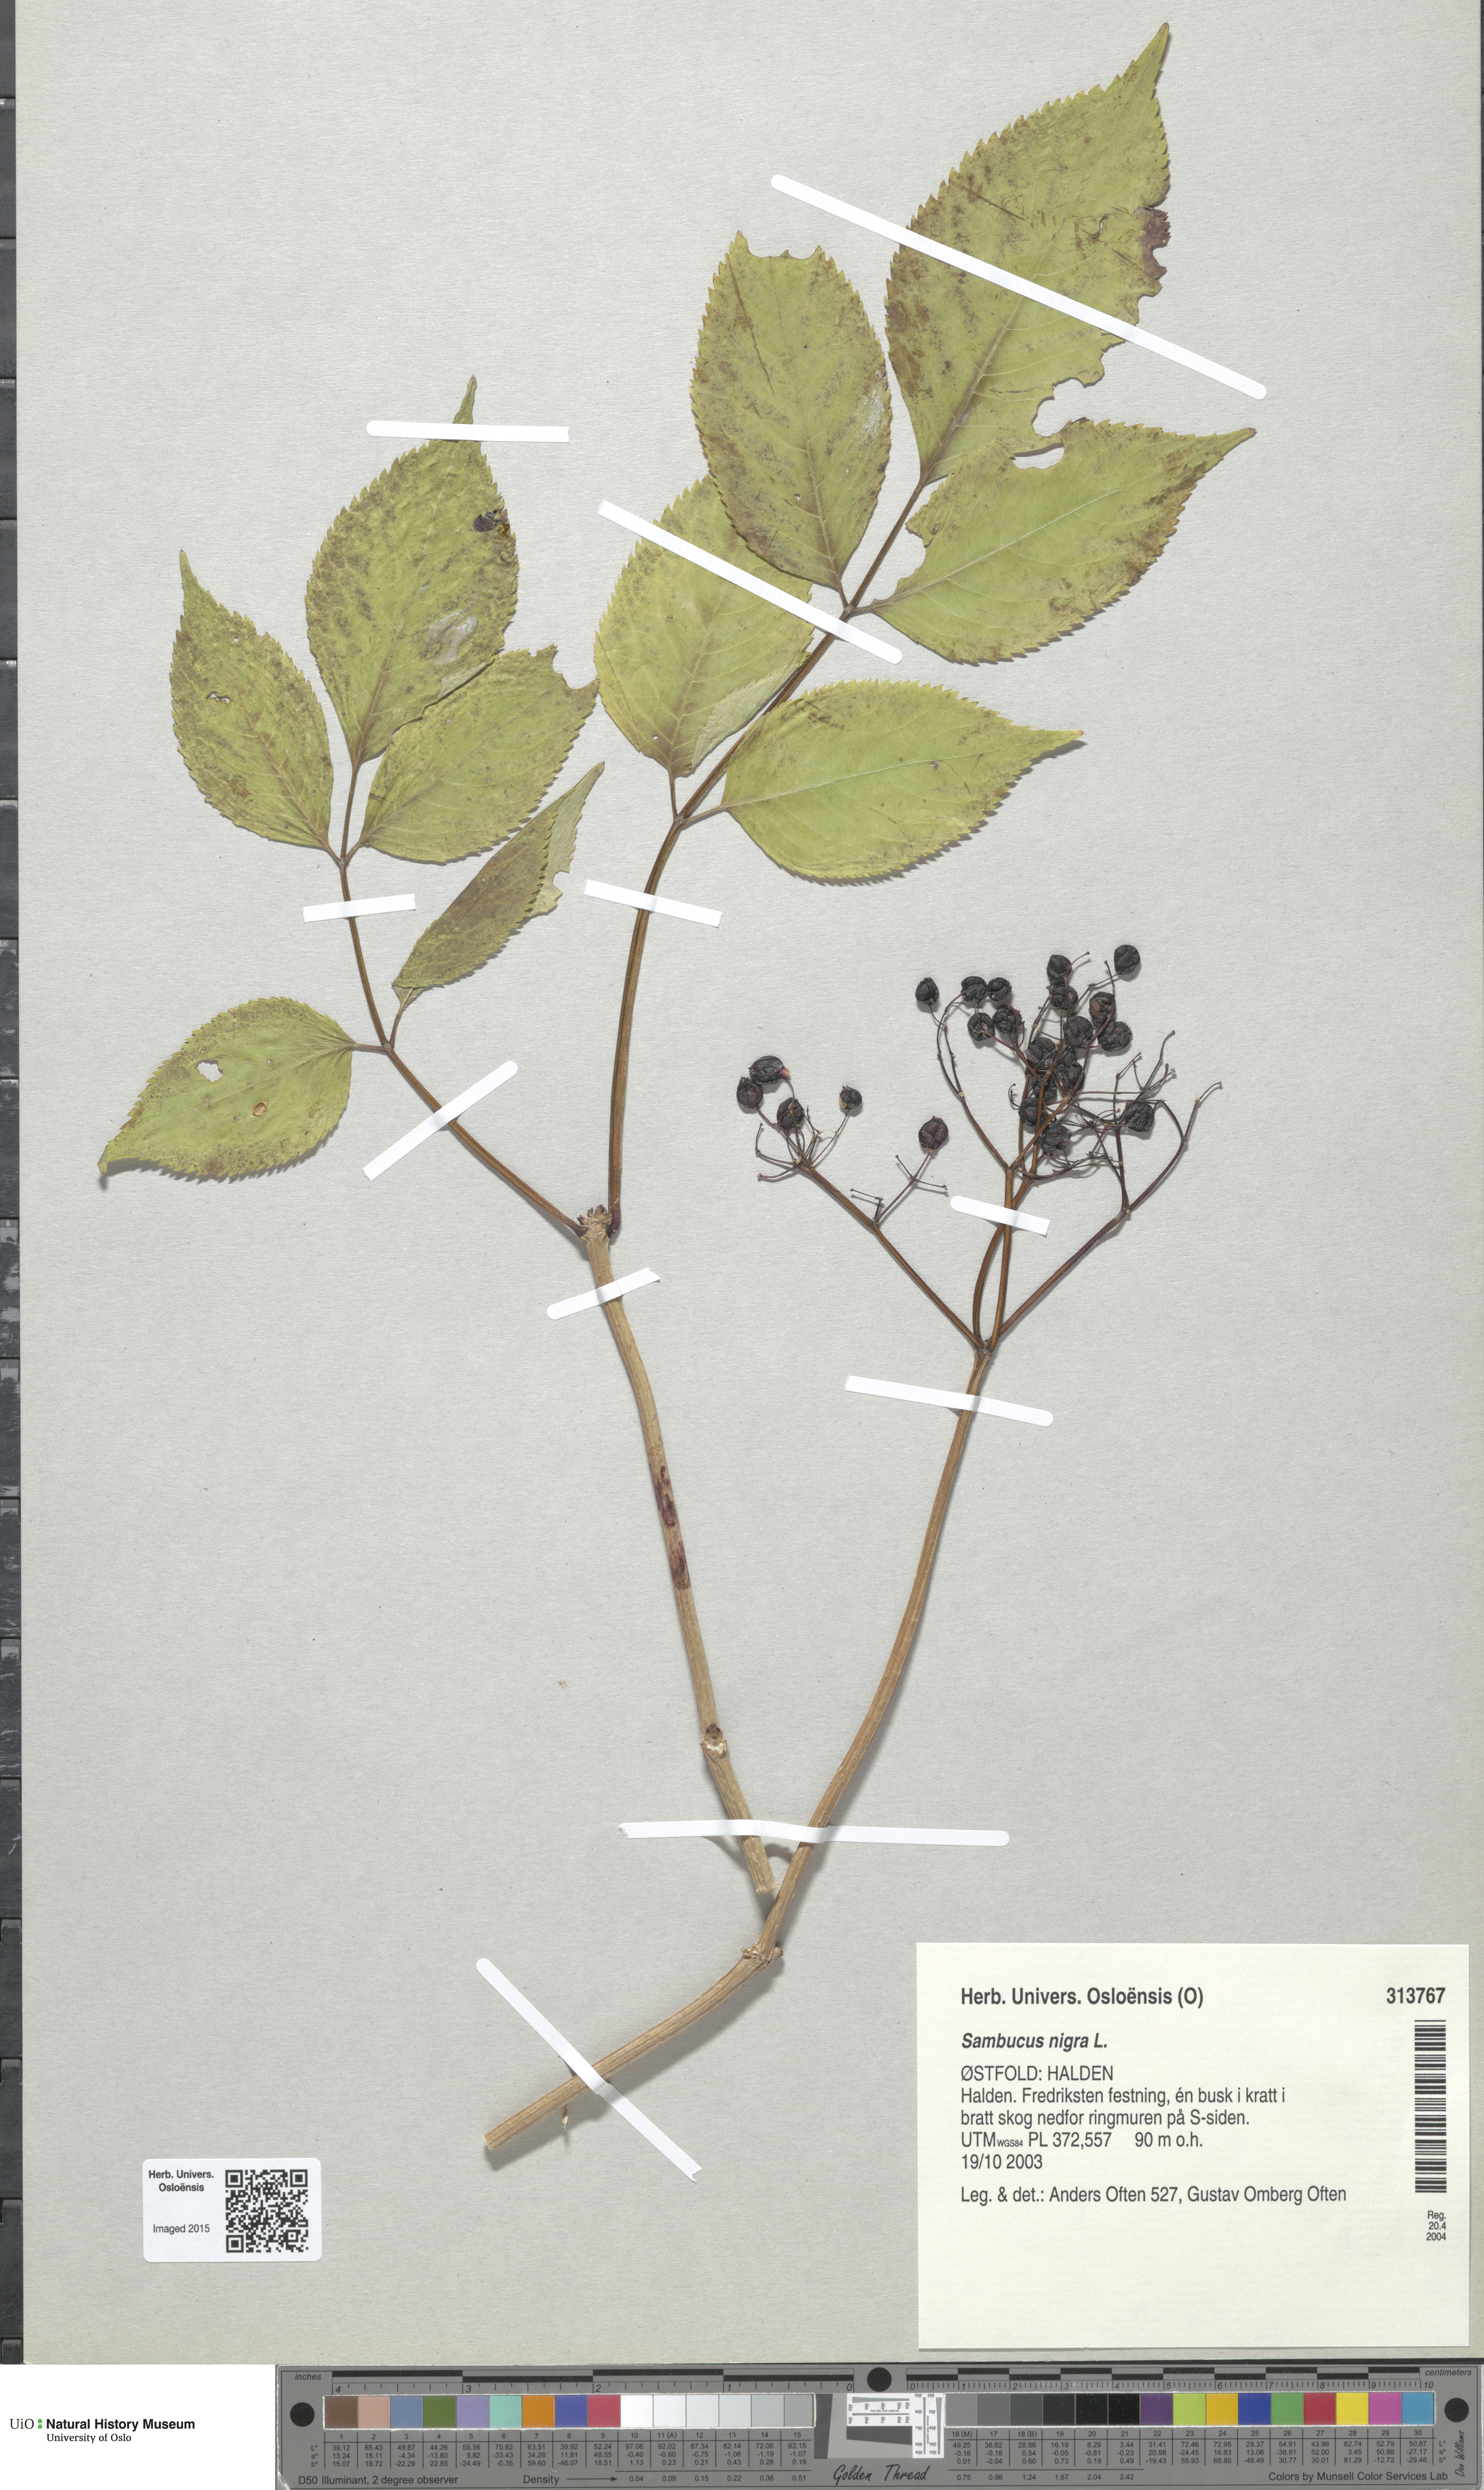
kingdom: Plantae
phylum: Tracheophyta
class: Magnoliopsida
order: Dipsacales
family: Viburnaceae
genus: Sambucus
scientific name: Sambucus nigra
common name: Elder
